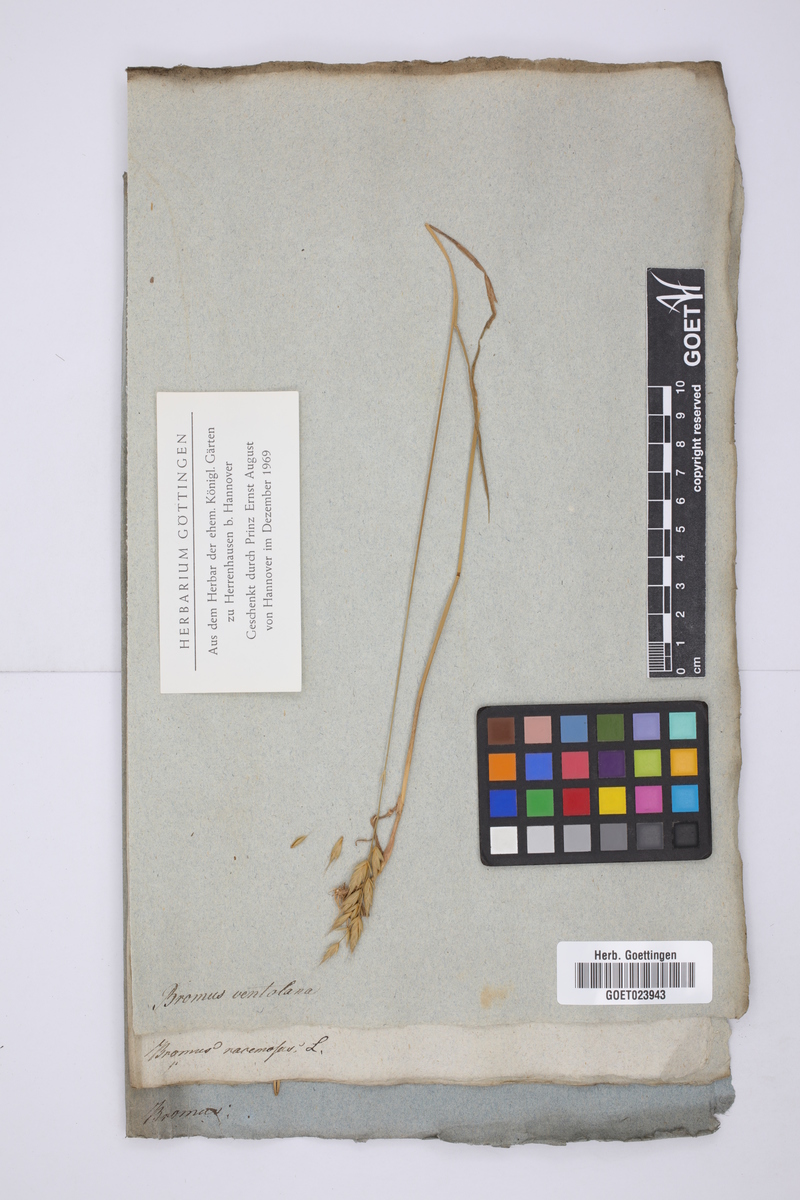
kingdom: Plantae
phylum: Tracheophyta
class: Liliopsida
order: Poales
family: Poaceae
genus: Bromus
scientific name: Bromus arvensis
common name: Field brome
